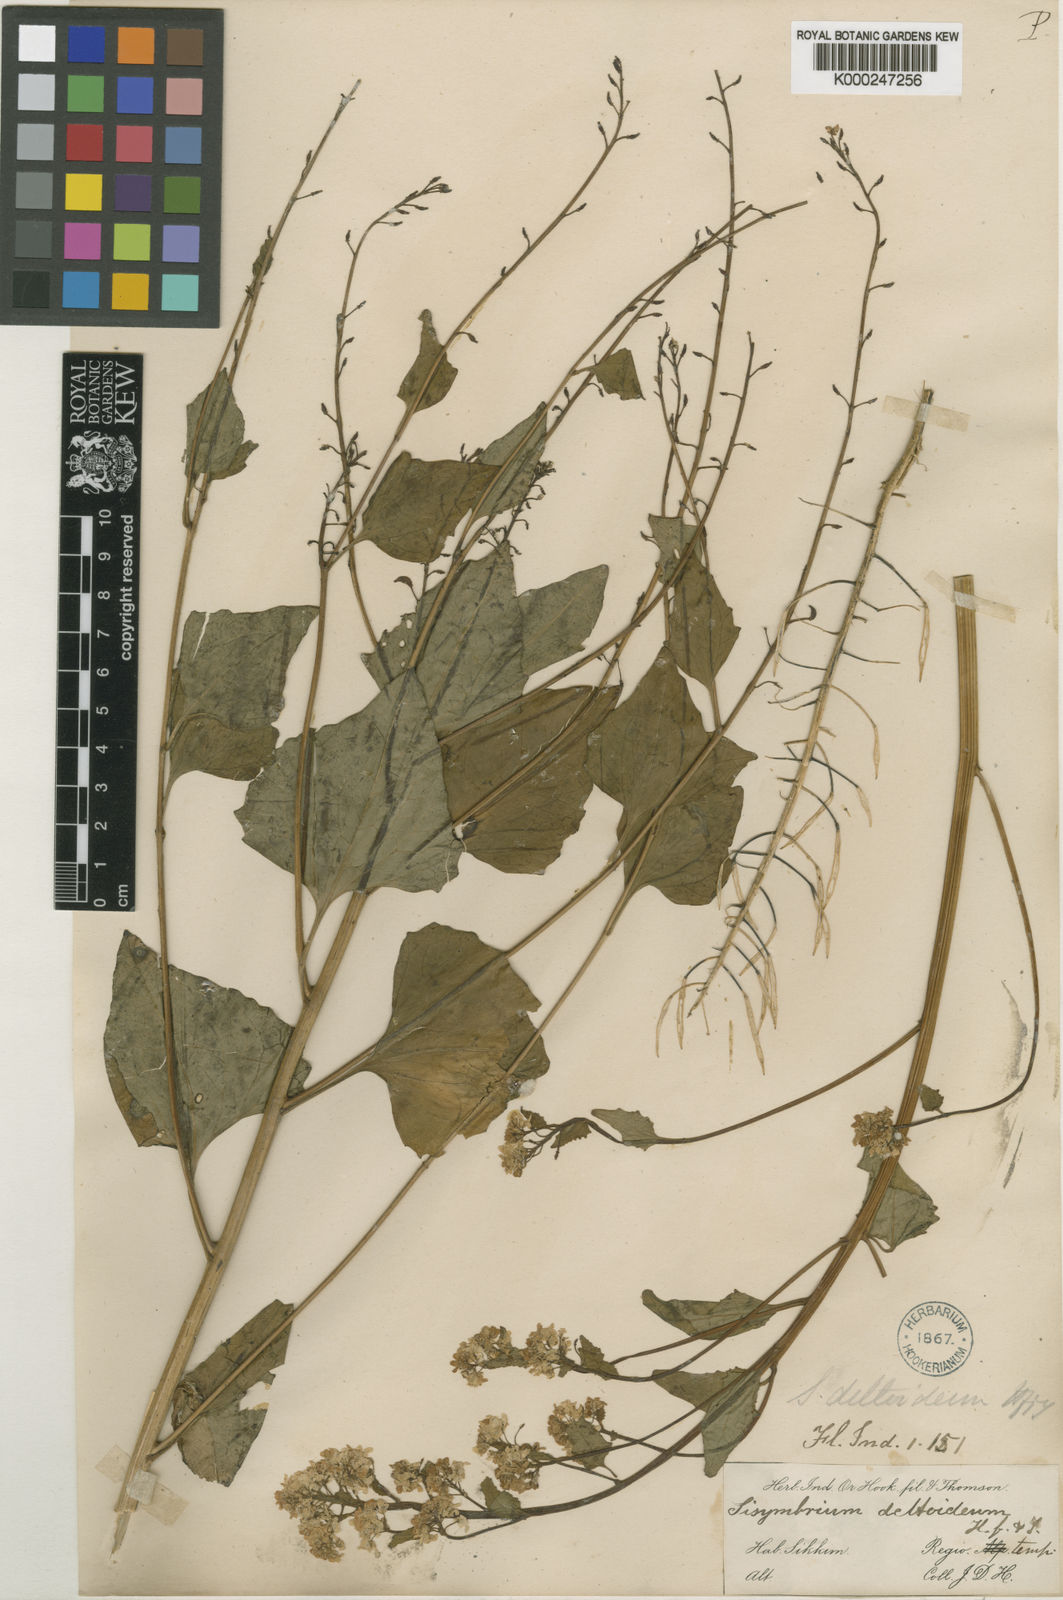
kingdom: Plantae
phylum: Tracheophyta
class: Magnoliopsida
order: Brassicales
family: Brassicaceae
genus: Eutrema
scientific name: Eutrema deltoideum
